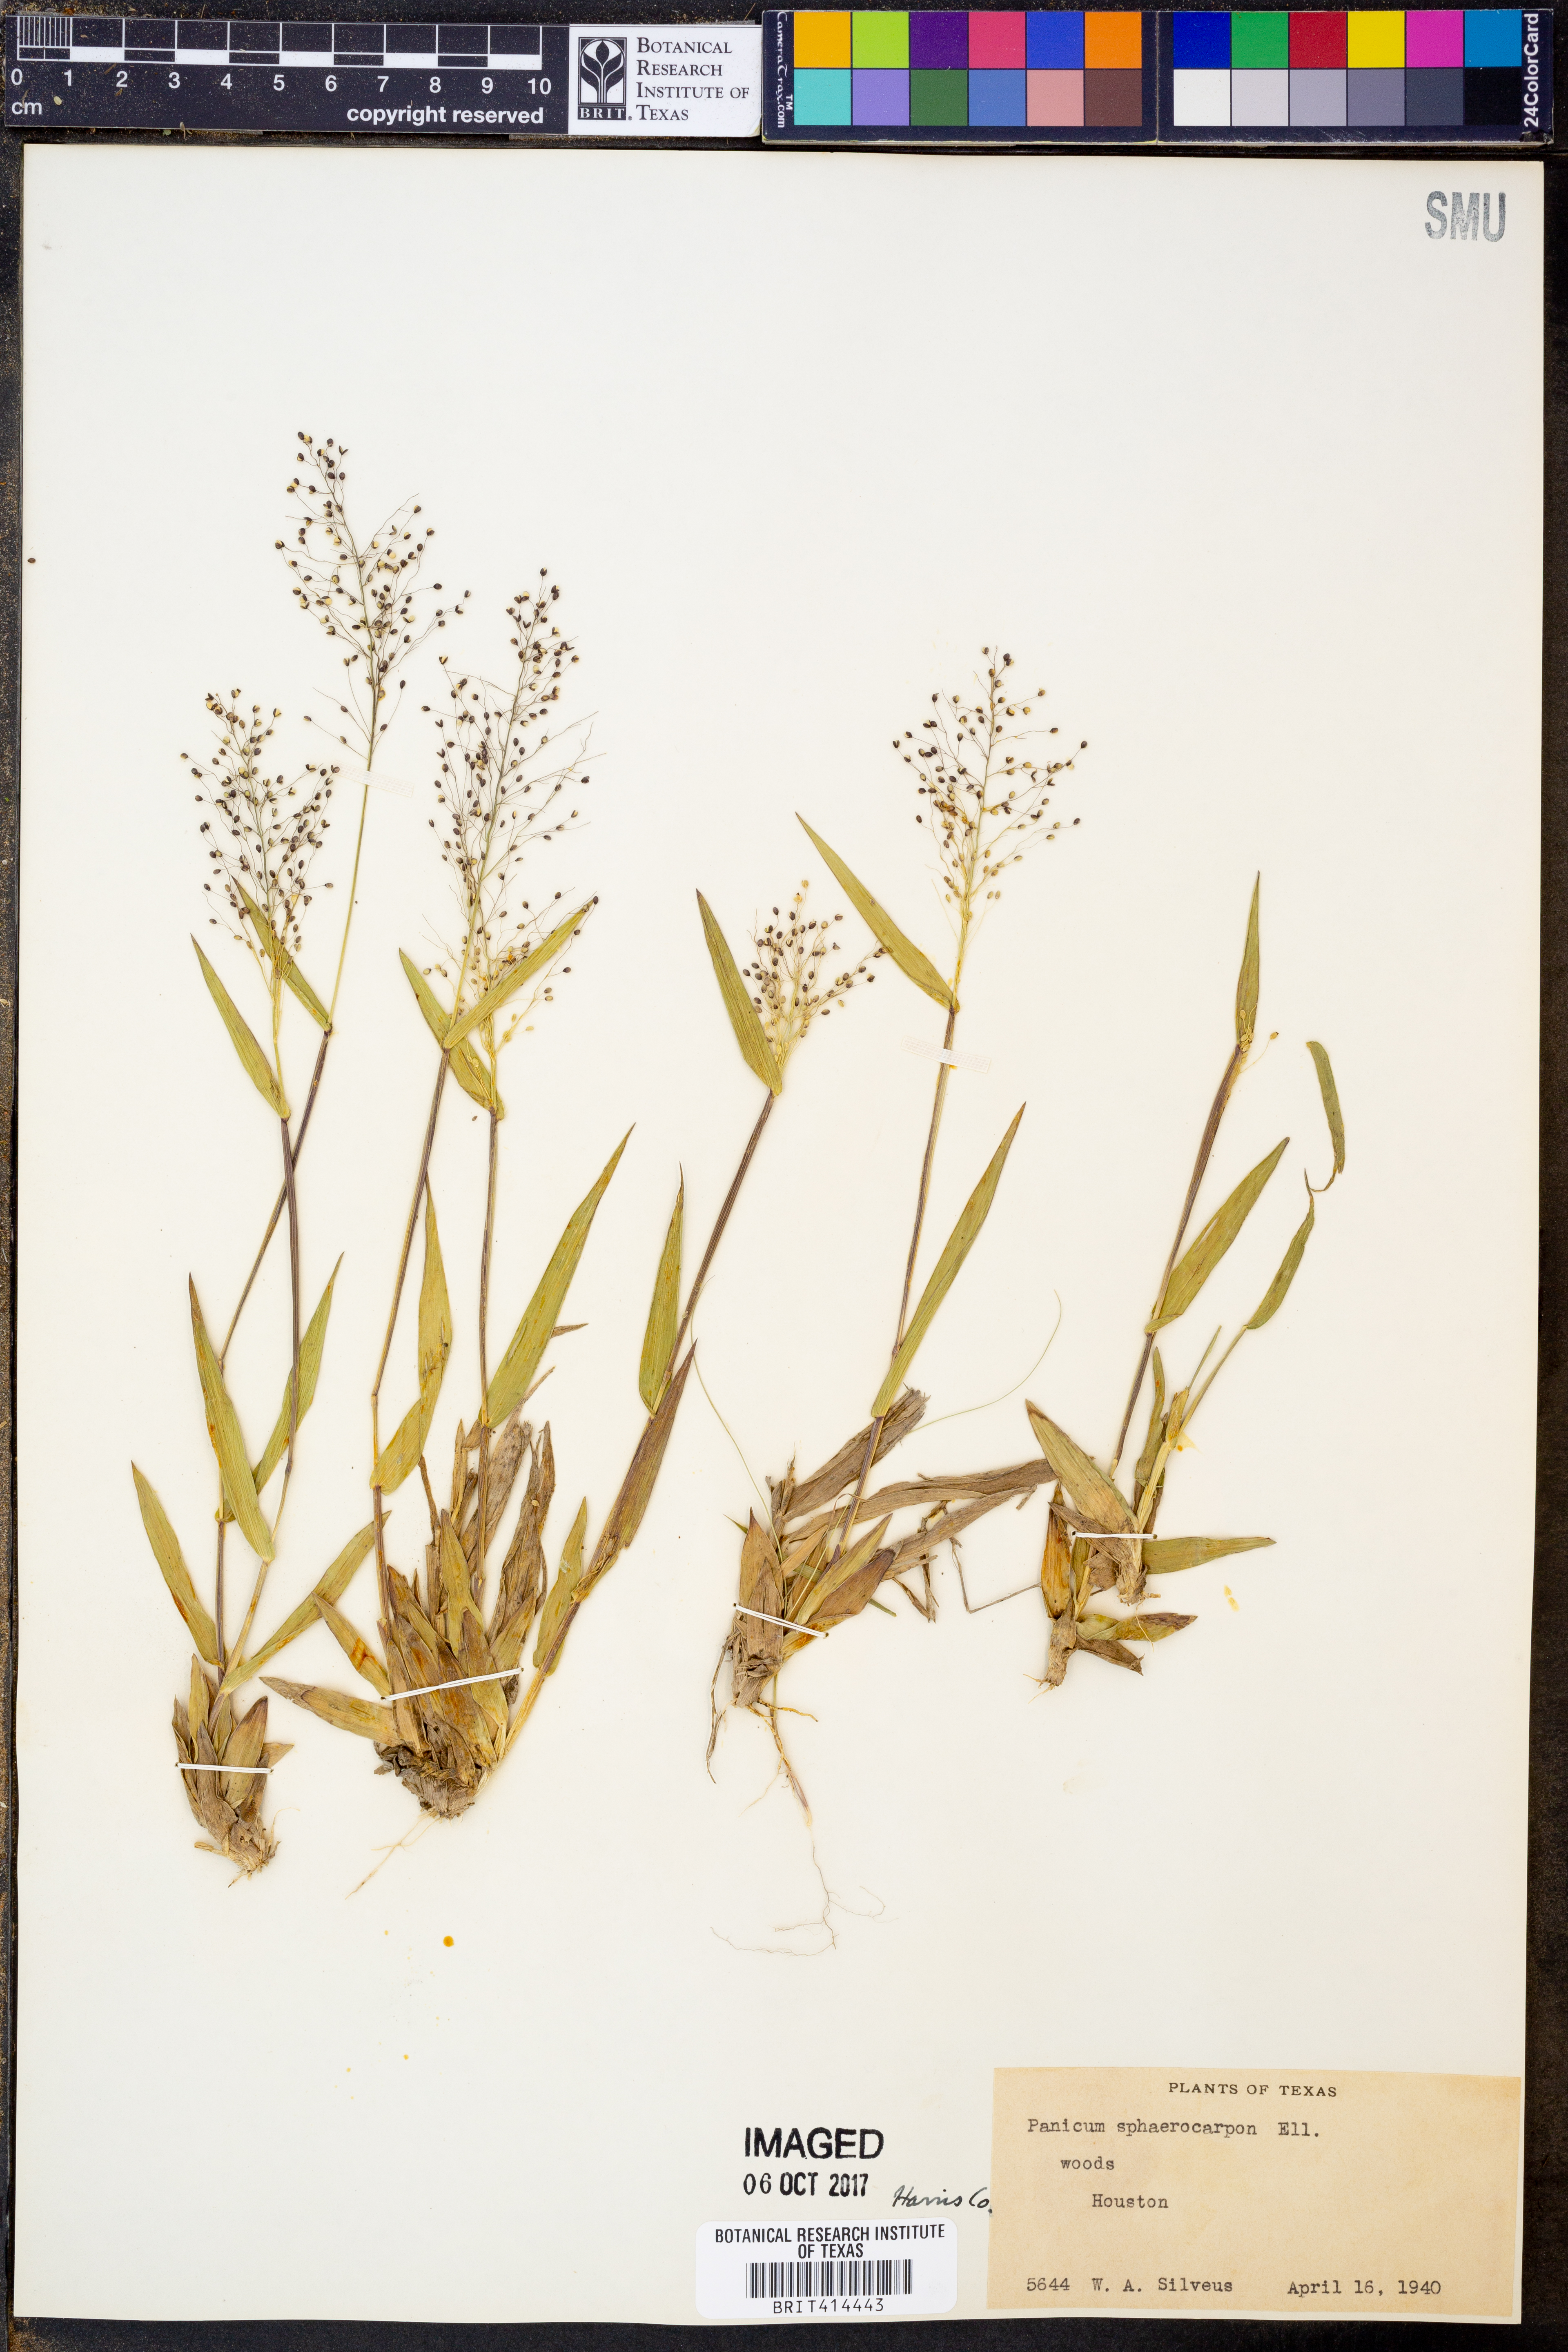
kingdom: Plantae
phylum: Tracheophyta
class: Liliopsida
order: Poales
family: Poaceae
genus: Dichanthelium
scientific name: Dichanthelium sphaerocarpon
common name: Round-fruited panicgrass
